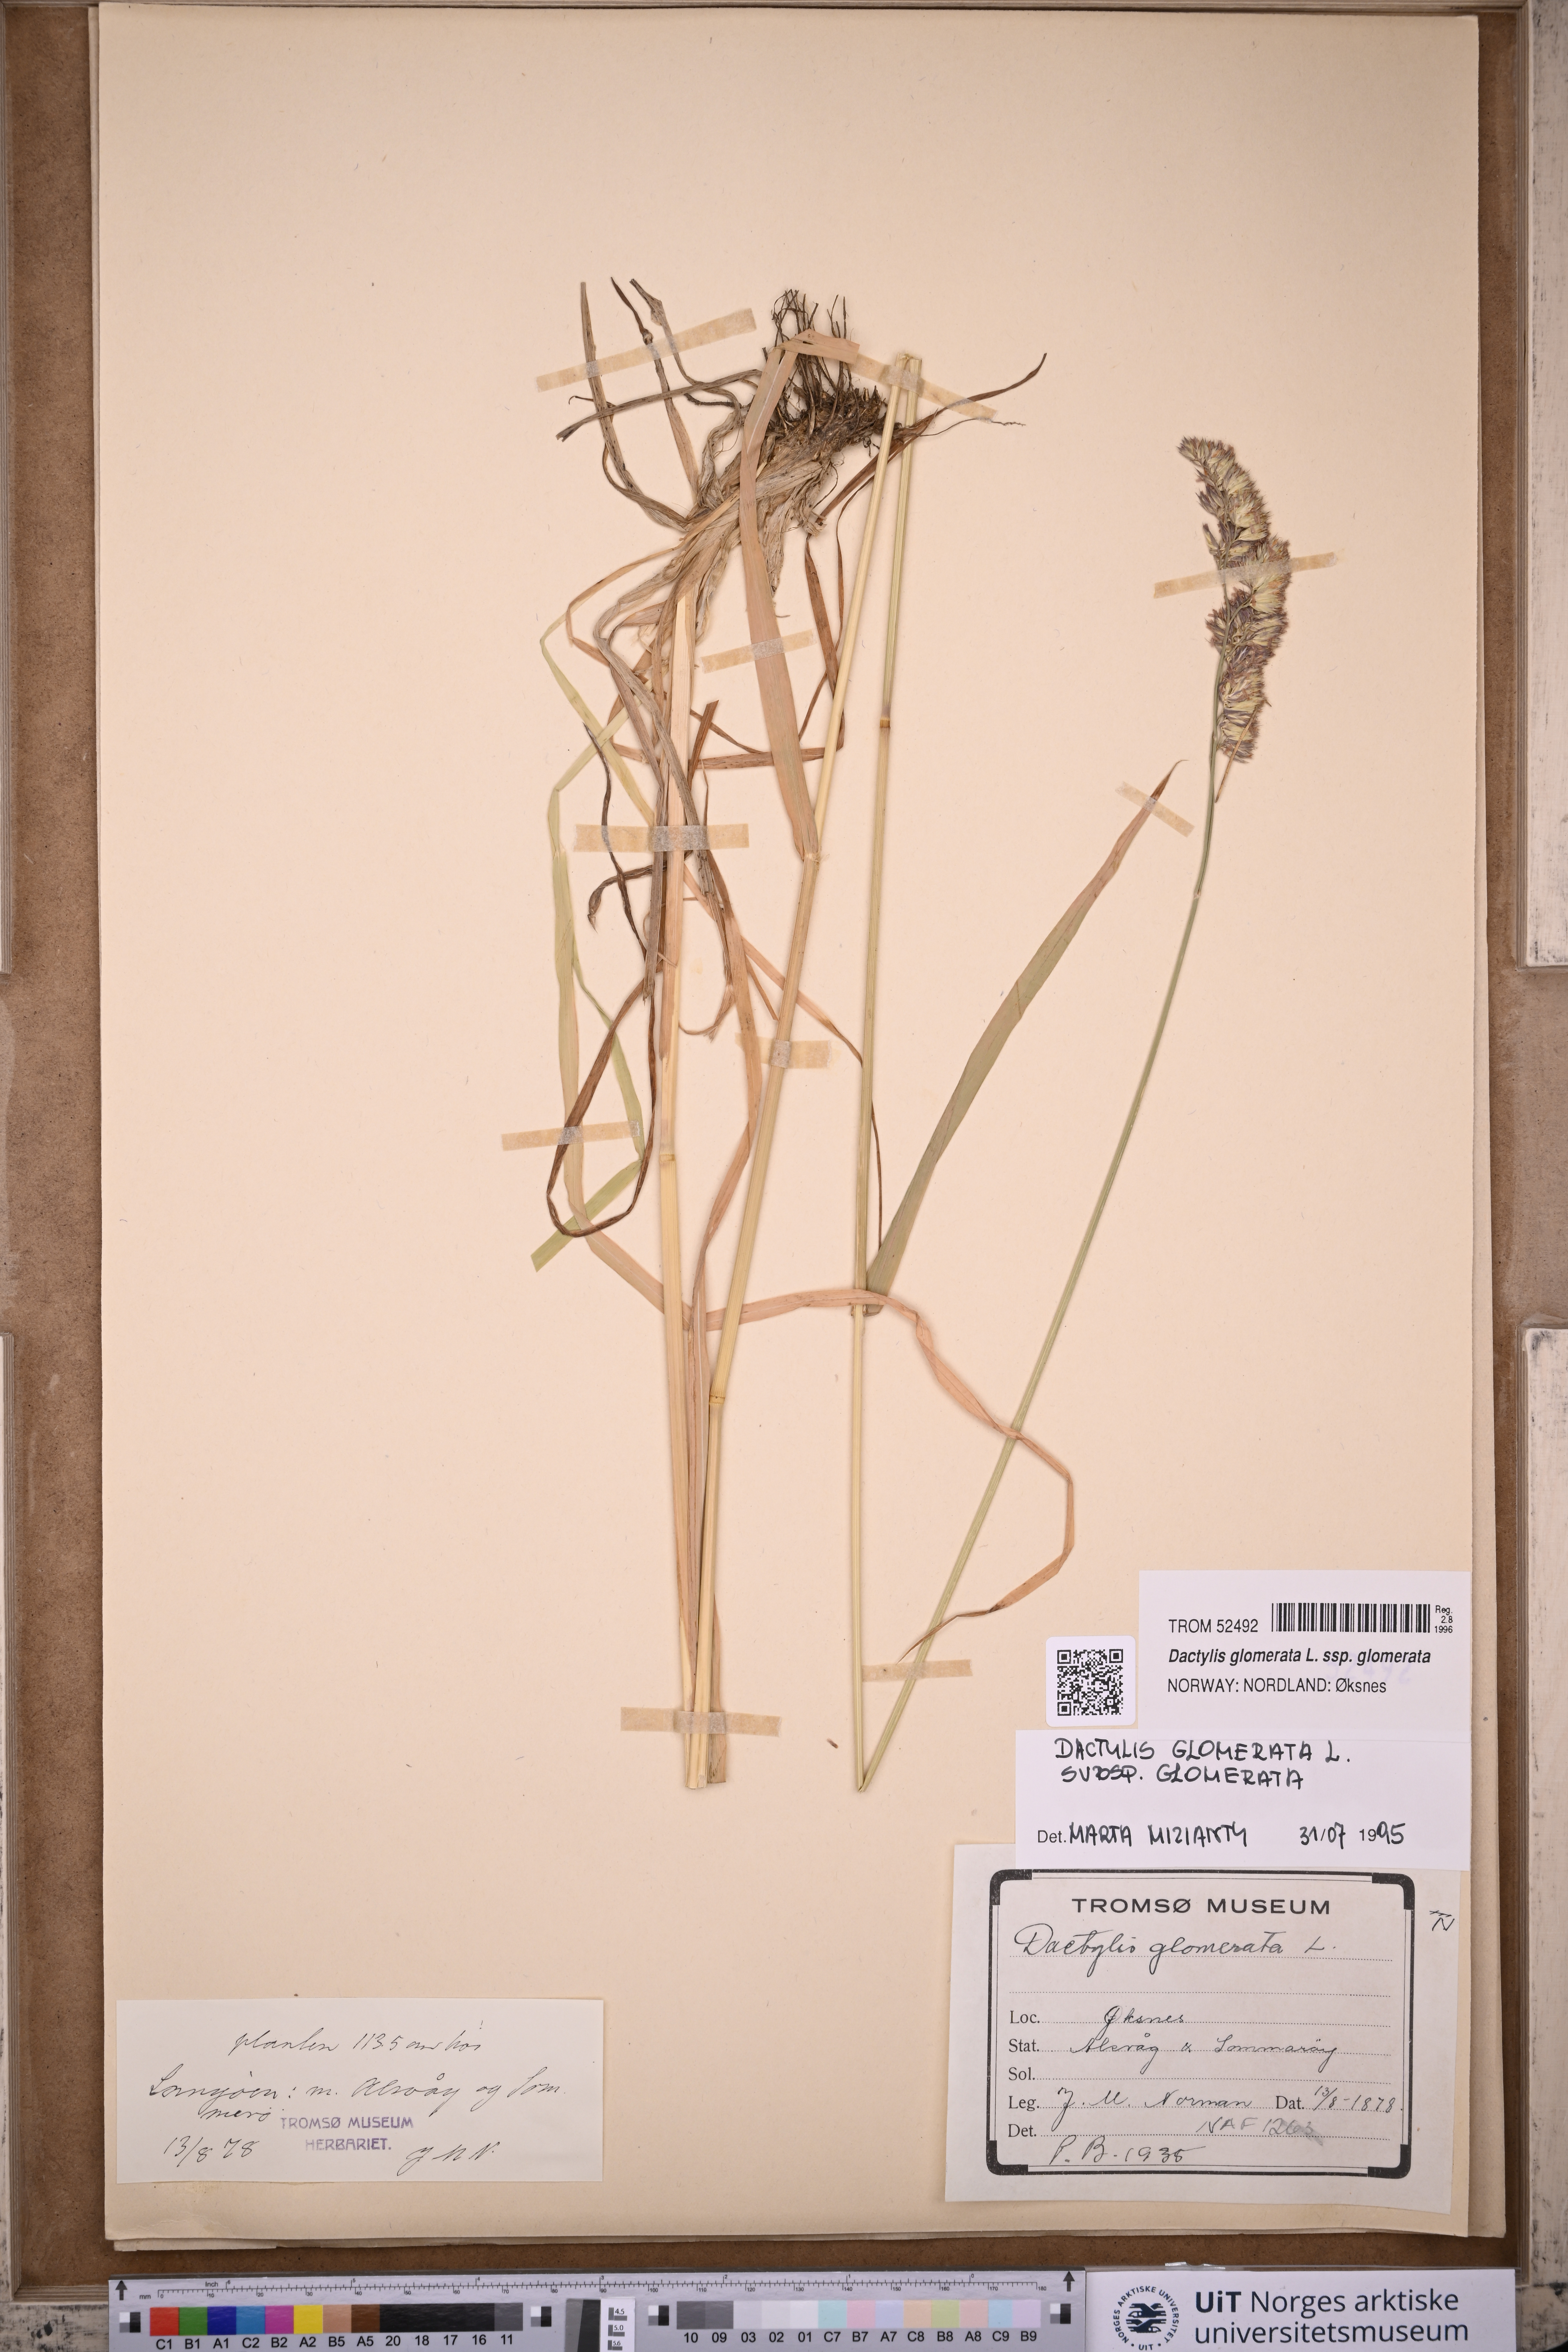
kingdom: Plantae
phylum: Tracheophyta
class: Liliopsida
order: Poales
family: Poaceae
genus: Dactylis
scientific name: Dactylis glomerata
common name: Orchardgrass
